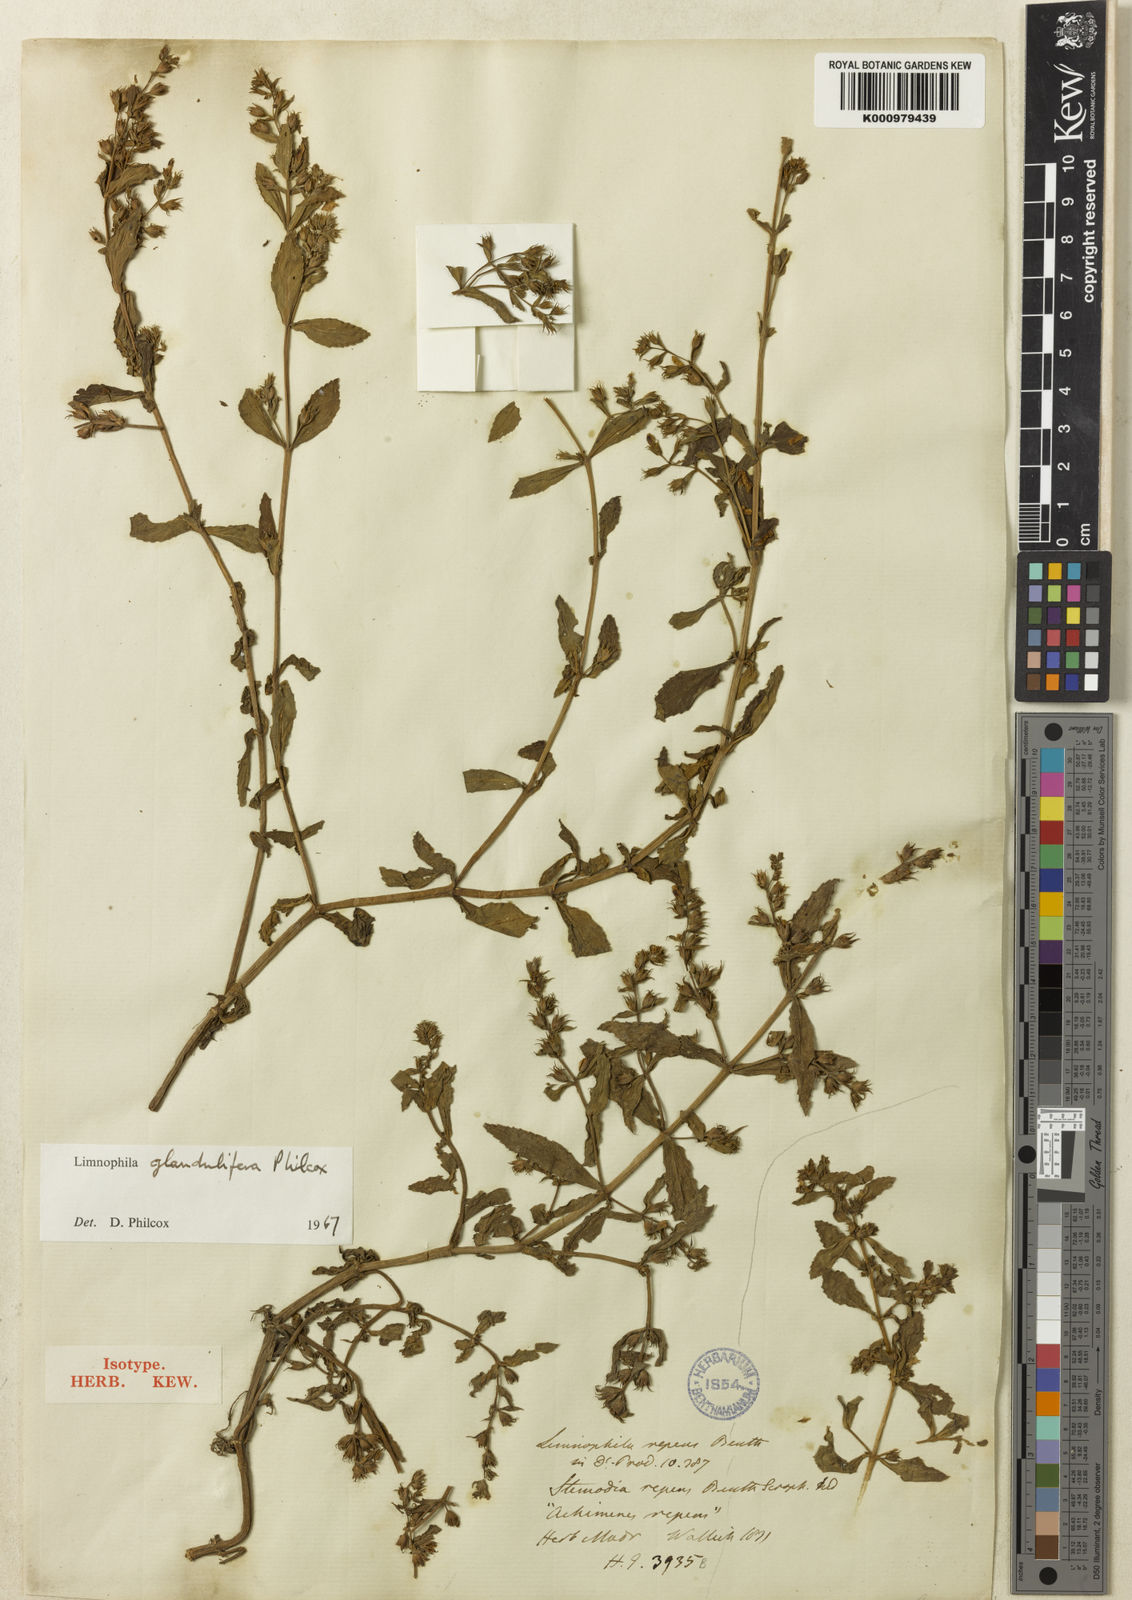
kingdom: Plantae
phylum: Tracheophyta
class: Magnoliopsida
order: Lamiales
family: Plantaginaceae
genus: Limnophila
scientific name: Limnophila glandulifera
